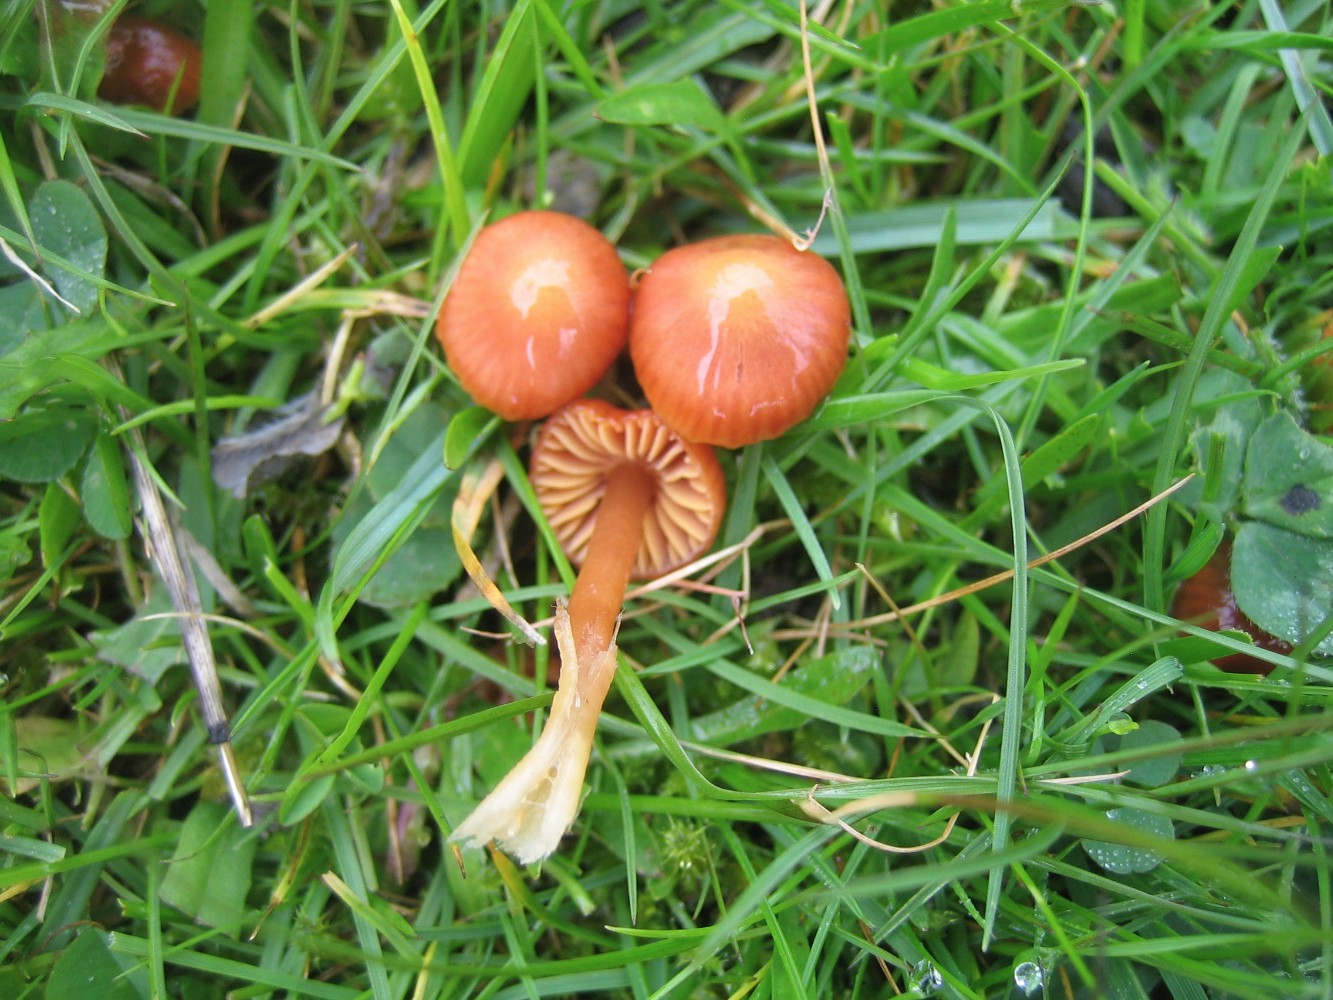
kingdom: Fungi
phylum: Basidiomycota
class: Agaricomycetes
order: Agaricales
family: Hygrophoraceae
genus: Gliophorus
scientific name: Gliophorus europerplexus
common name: Butterscotch waxcap
